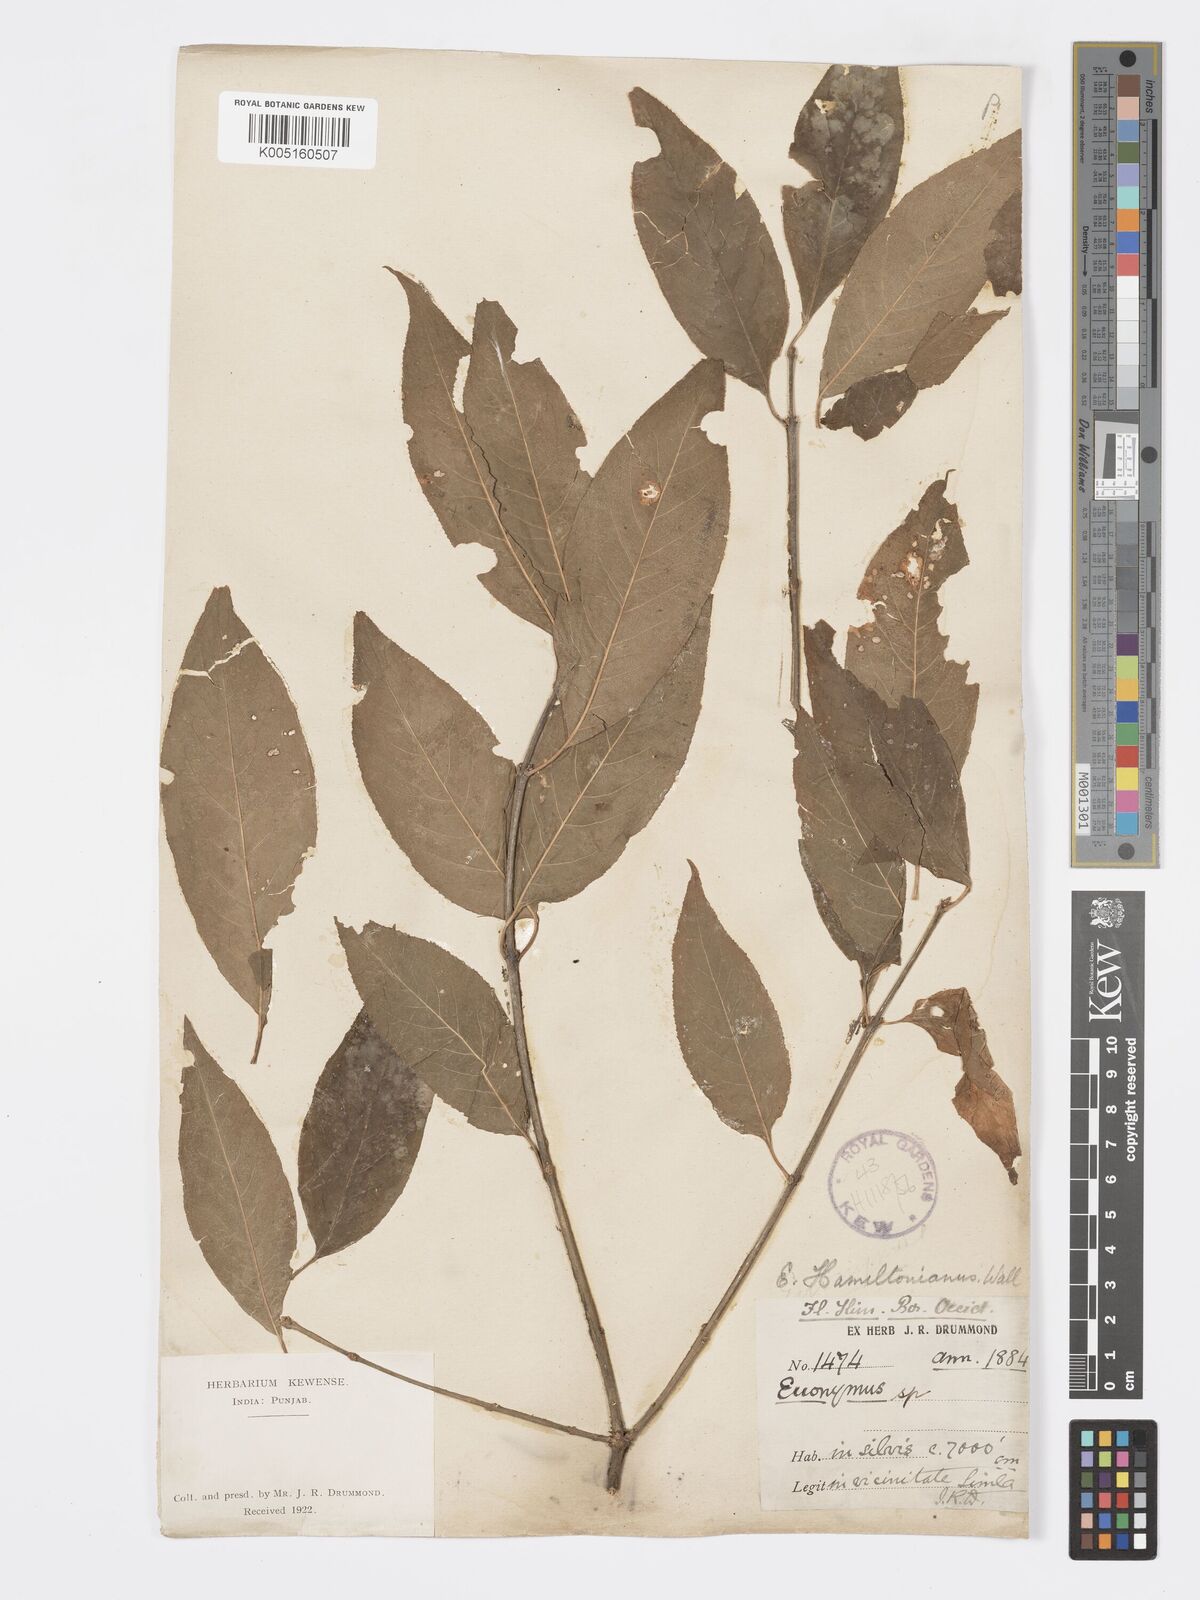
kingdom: Plantae
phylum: Tracheophyta
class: Magnoliopsida
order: Celastrales
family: Celastraceae
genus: Euonymus
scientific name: Euonymus
